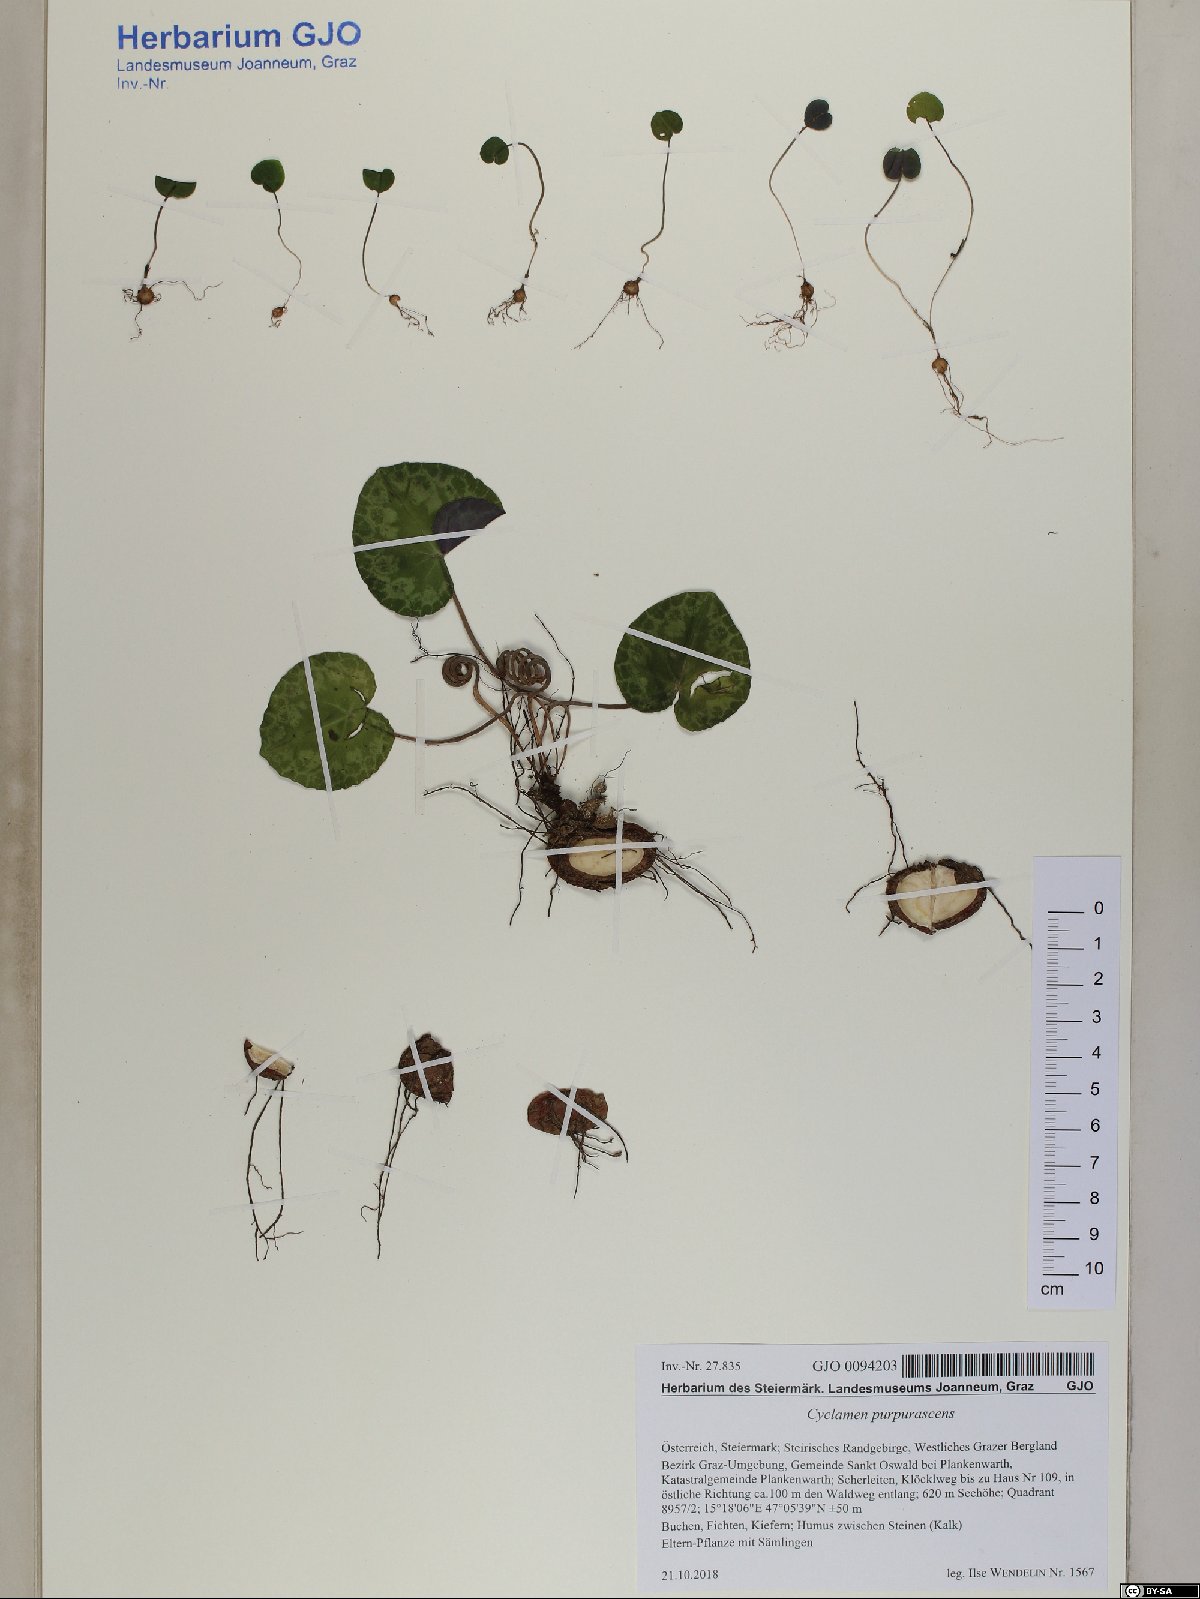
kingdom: Plantae
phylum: Tracheophyta
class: Magnoliopsida
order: Ericales
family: Primulaceae
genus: Cyclamen
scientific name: Cyclamen purpurascens
